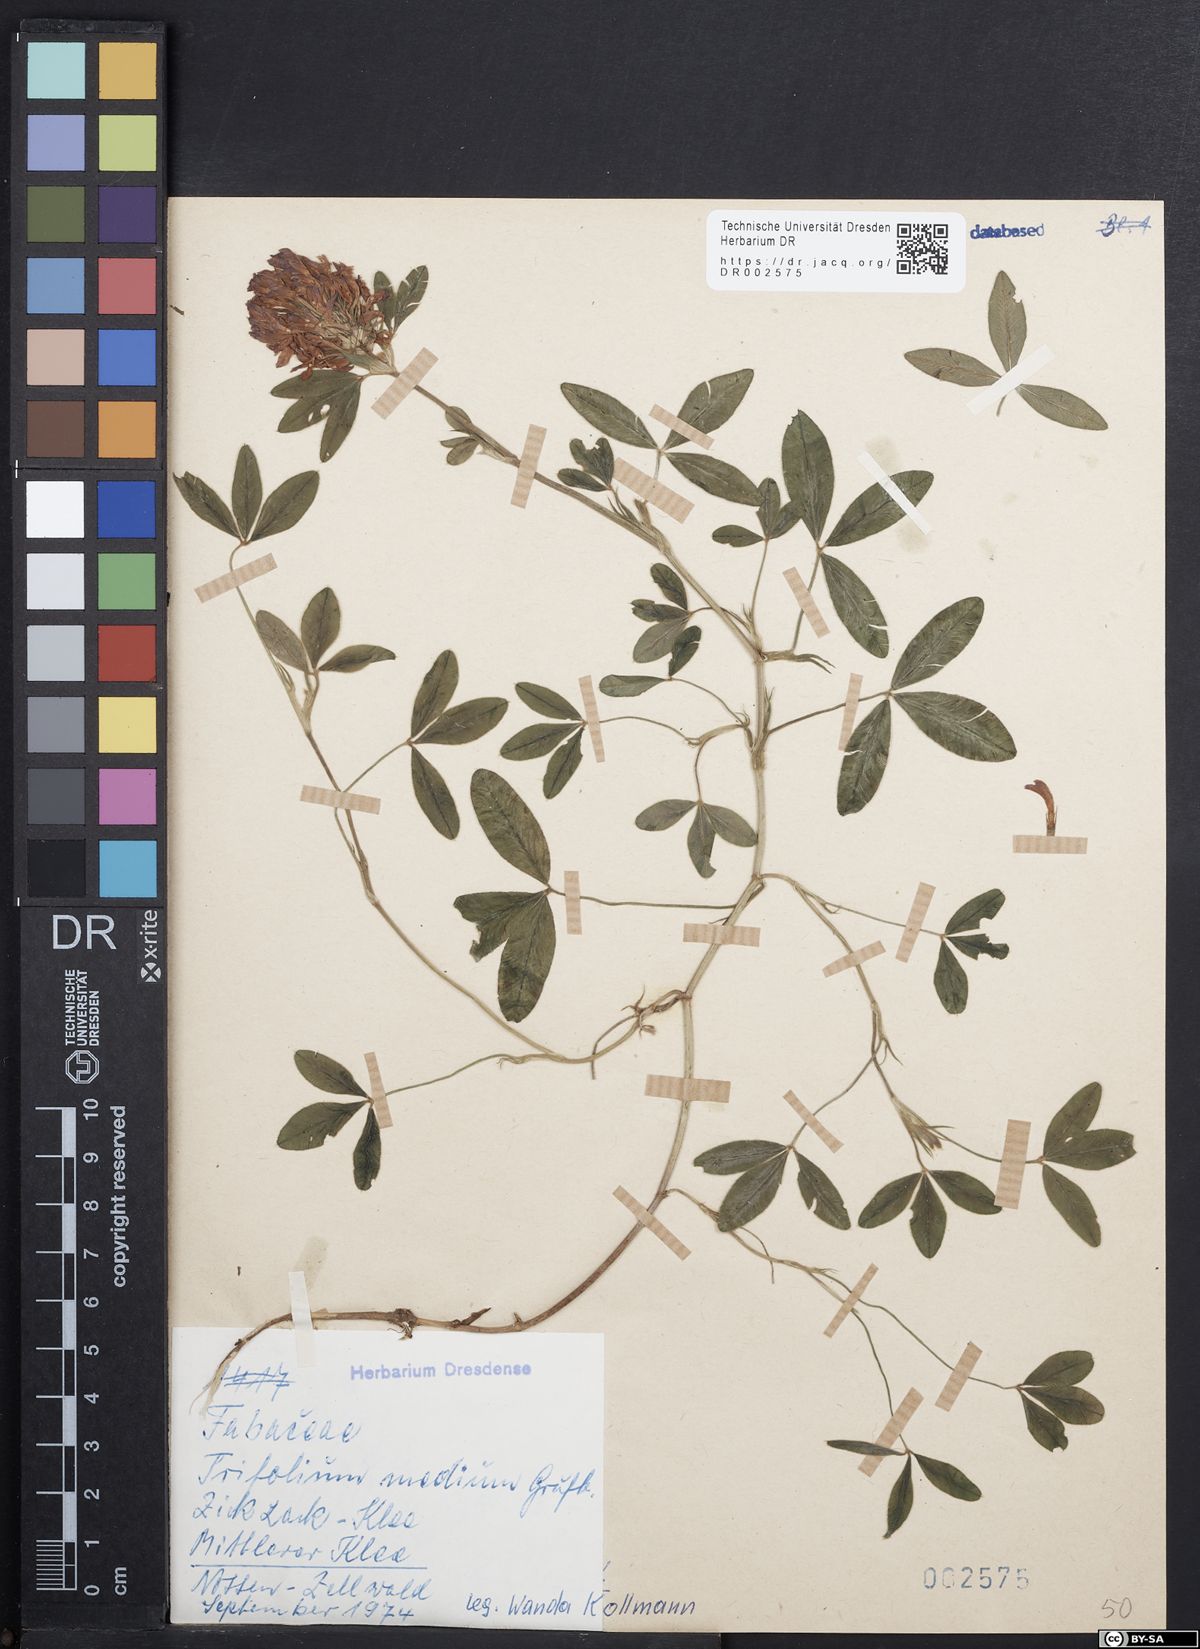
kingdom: Plantae
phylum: Tracheophyta
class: Magnoliopsida
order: Fabales
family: Fabaceae
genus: Trifolium
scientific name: Trifolium medium
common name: Zigzag clover
